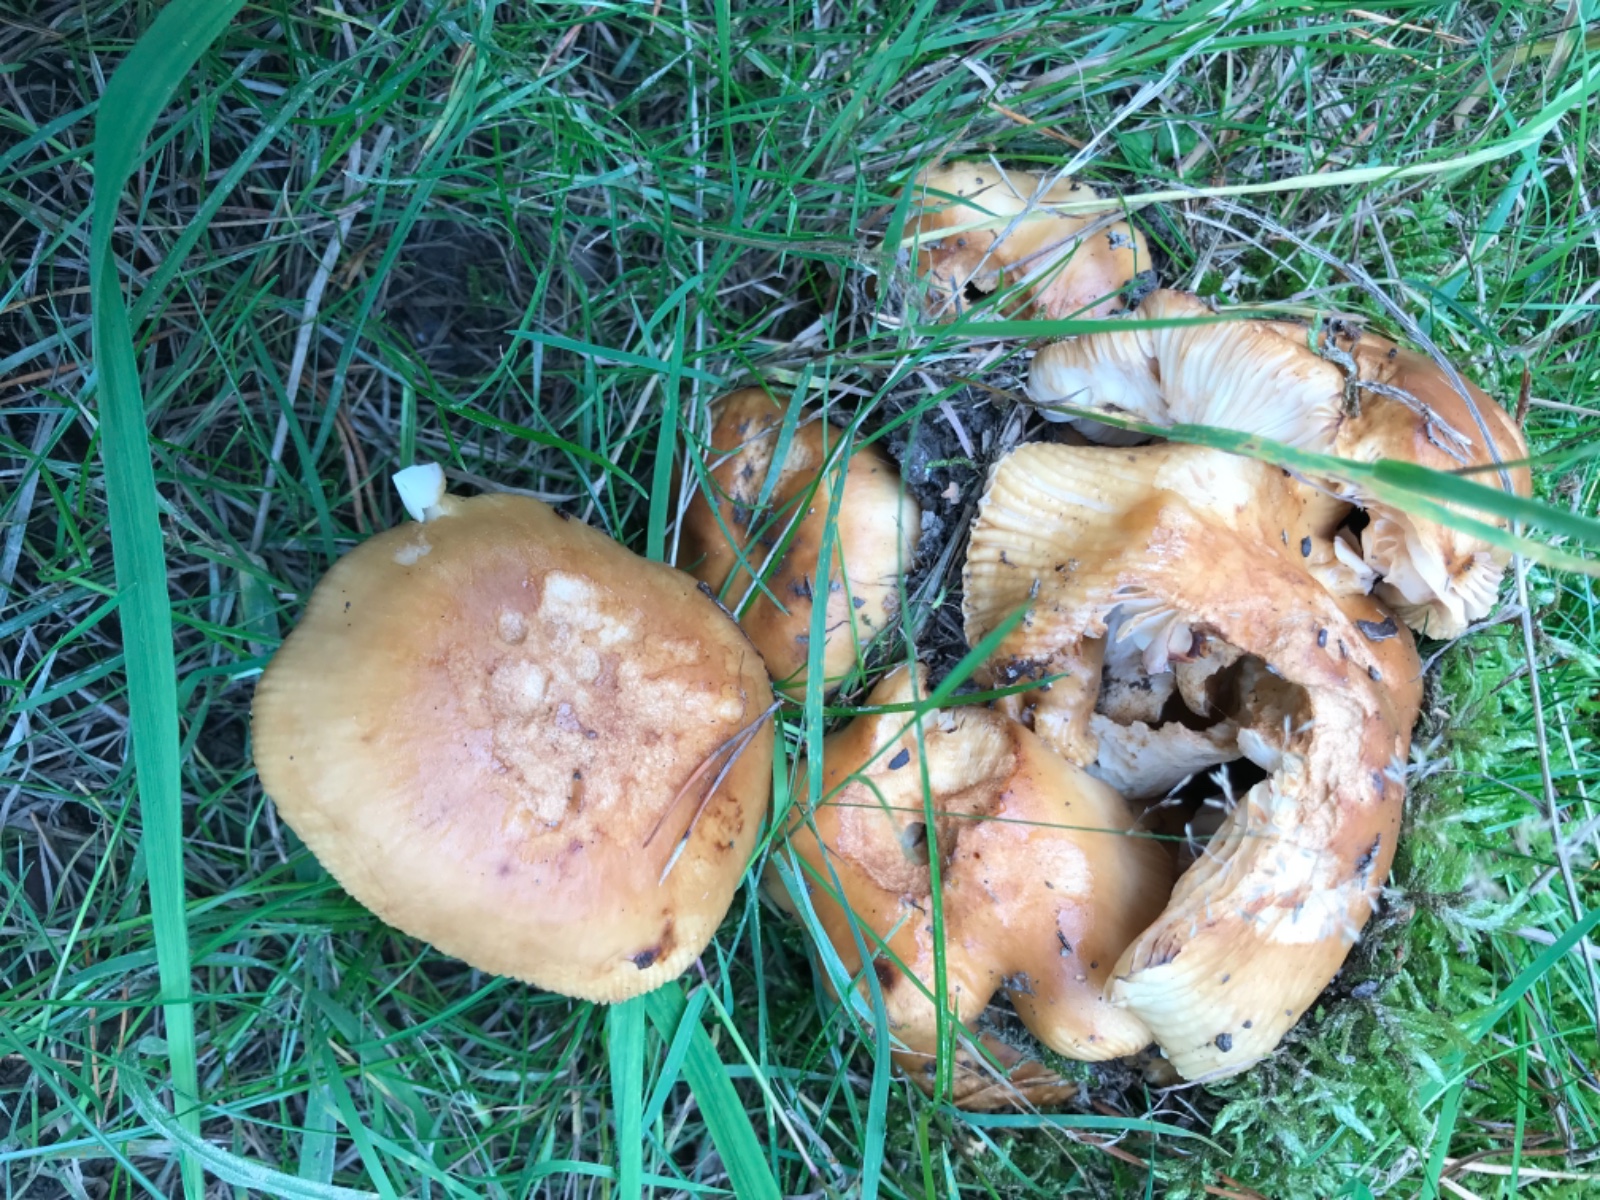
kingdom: Fungi
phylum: Basidiomycota
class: Agaricomycetes
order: Russulales
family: Russulaceae
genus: Russula
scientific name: Russula
